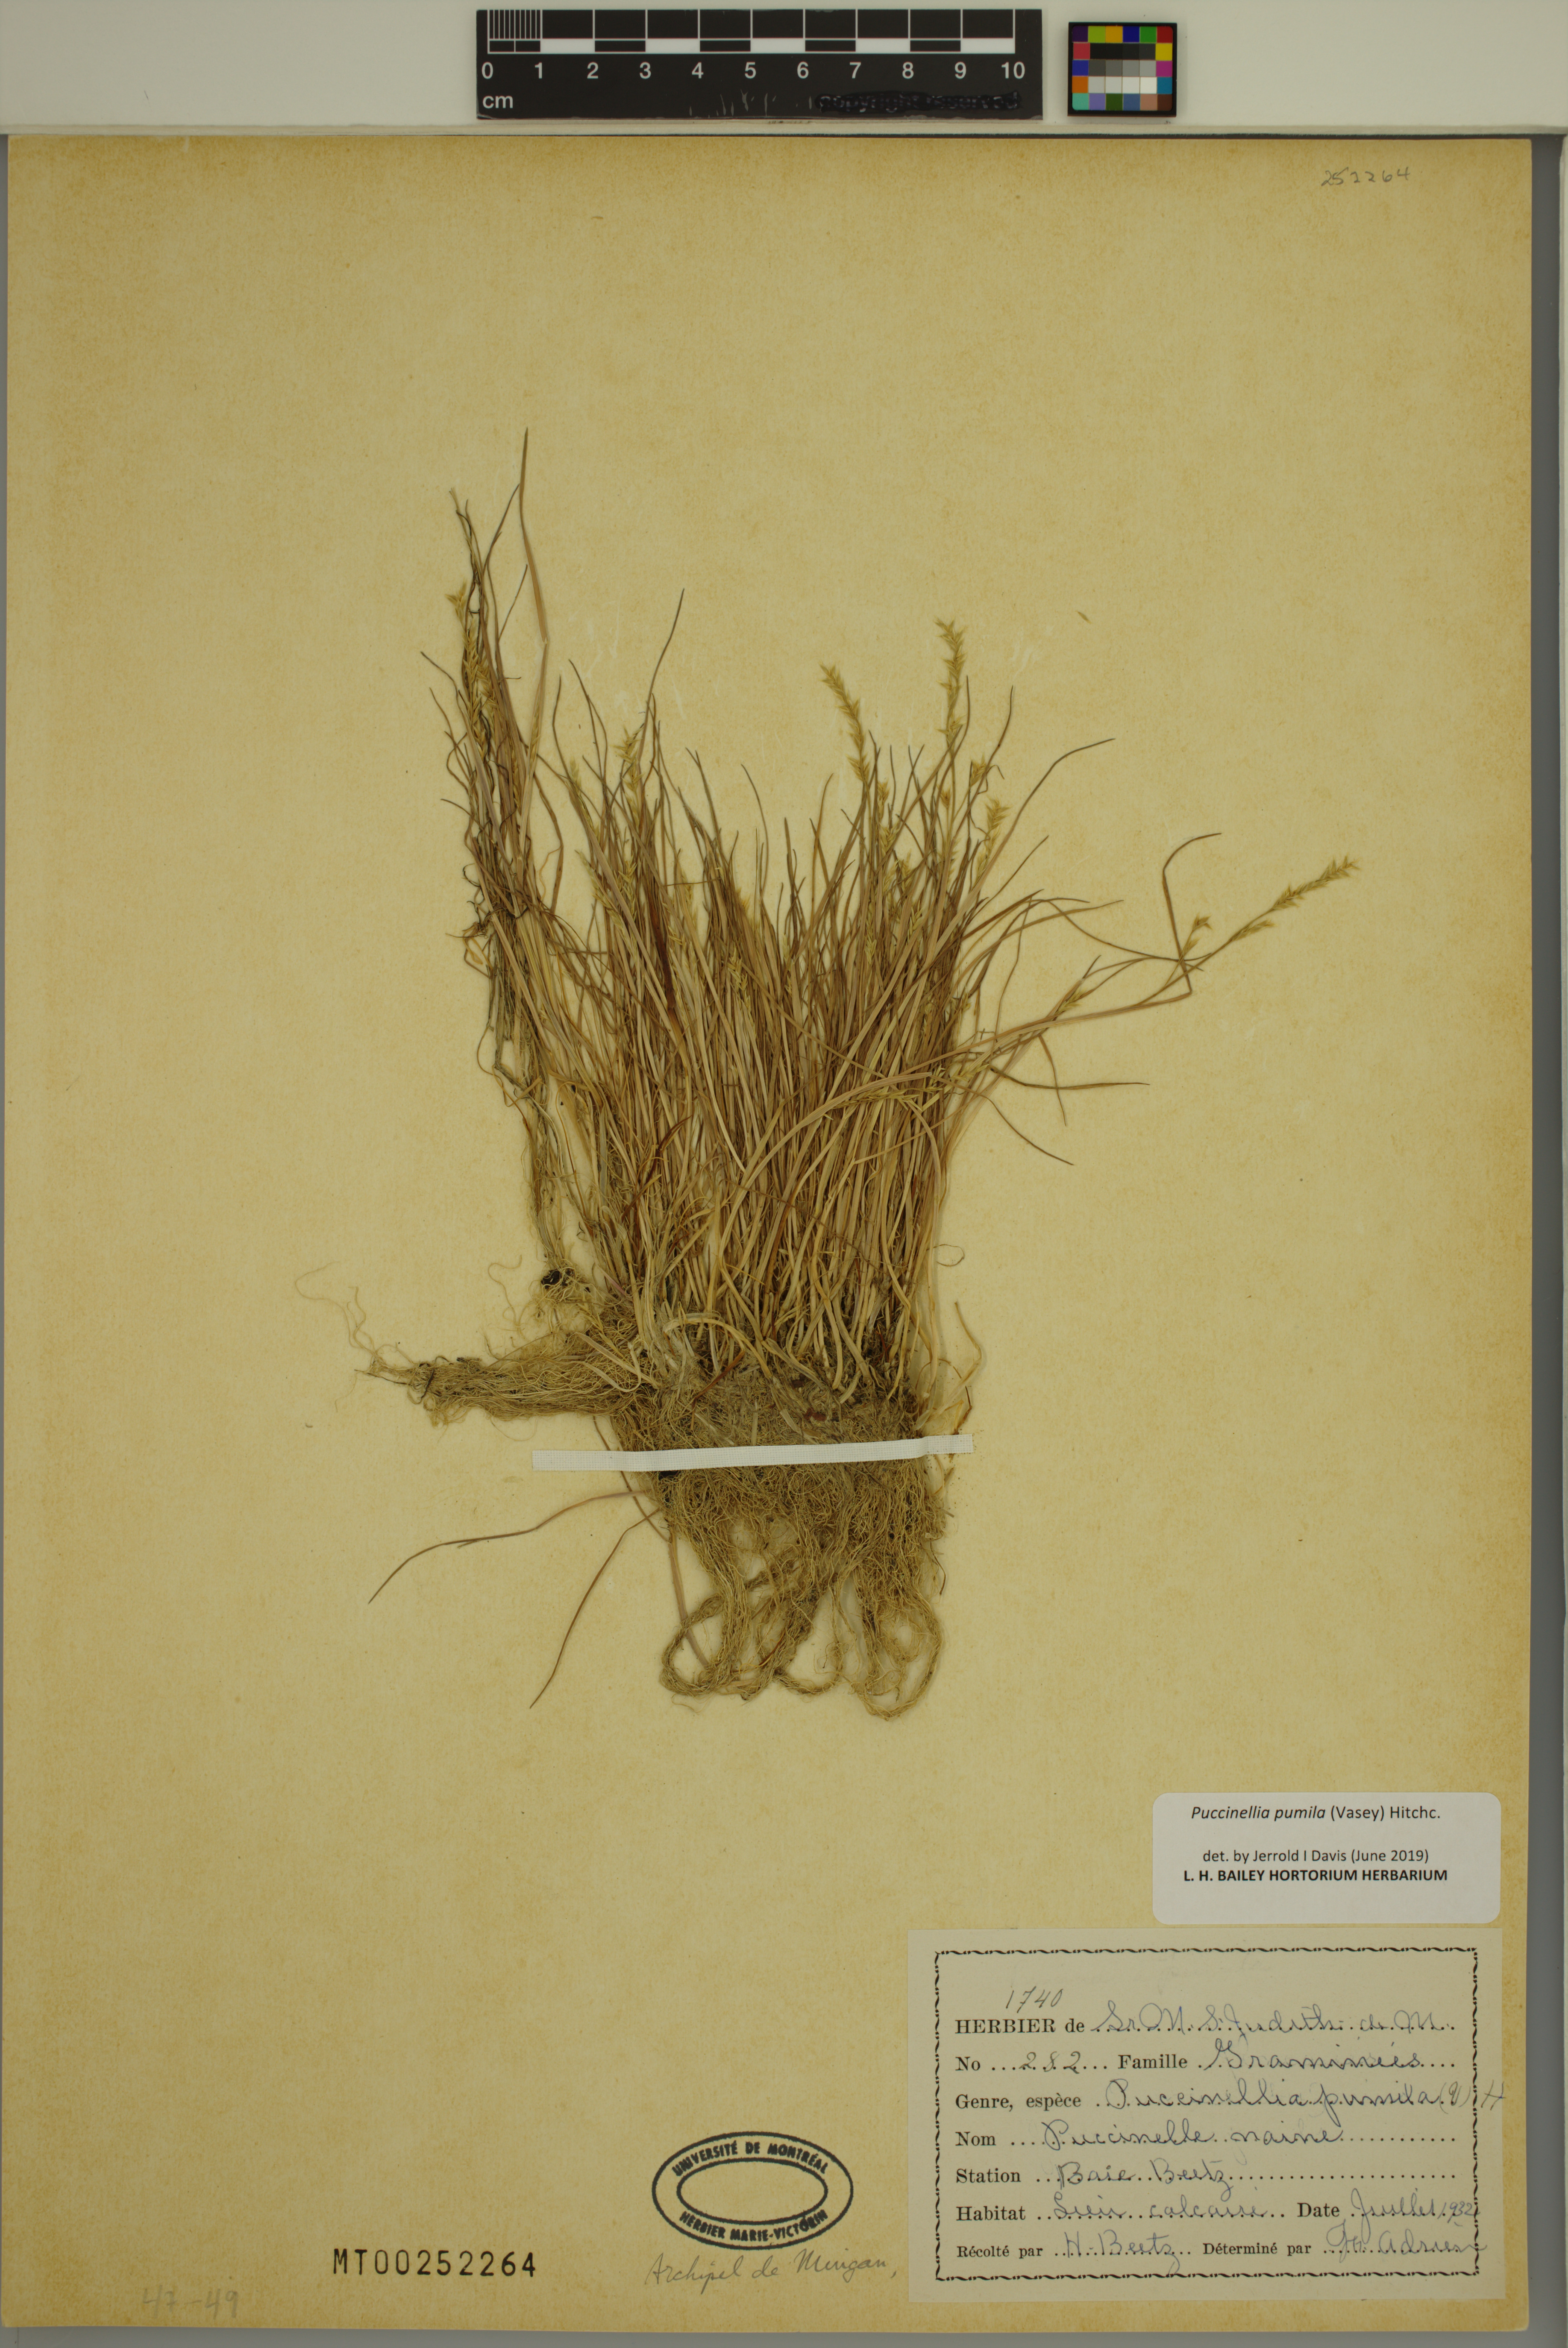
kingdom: Plantae
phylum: Tracheophyta
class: Liliopsida
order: Poales
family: Poaceae
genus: Puccinellia
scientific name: Puccinellia pumila
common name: Dwarf alkaligrass
